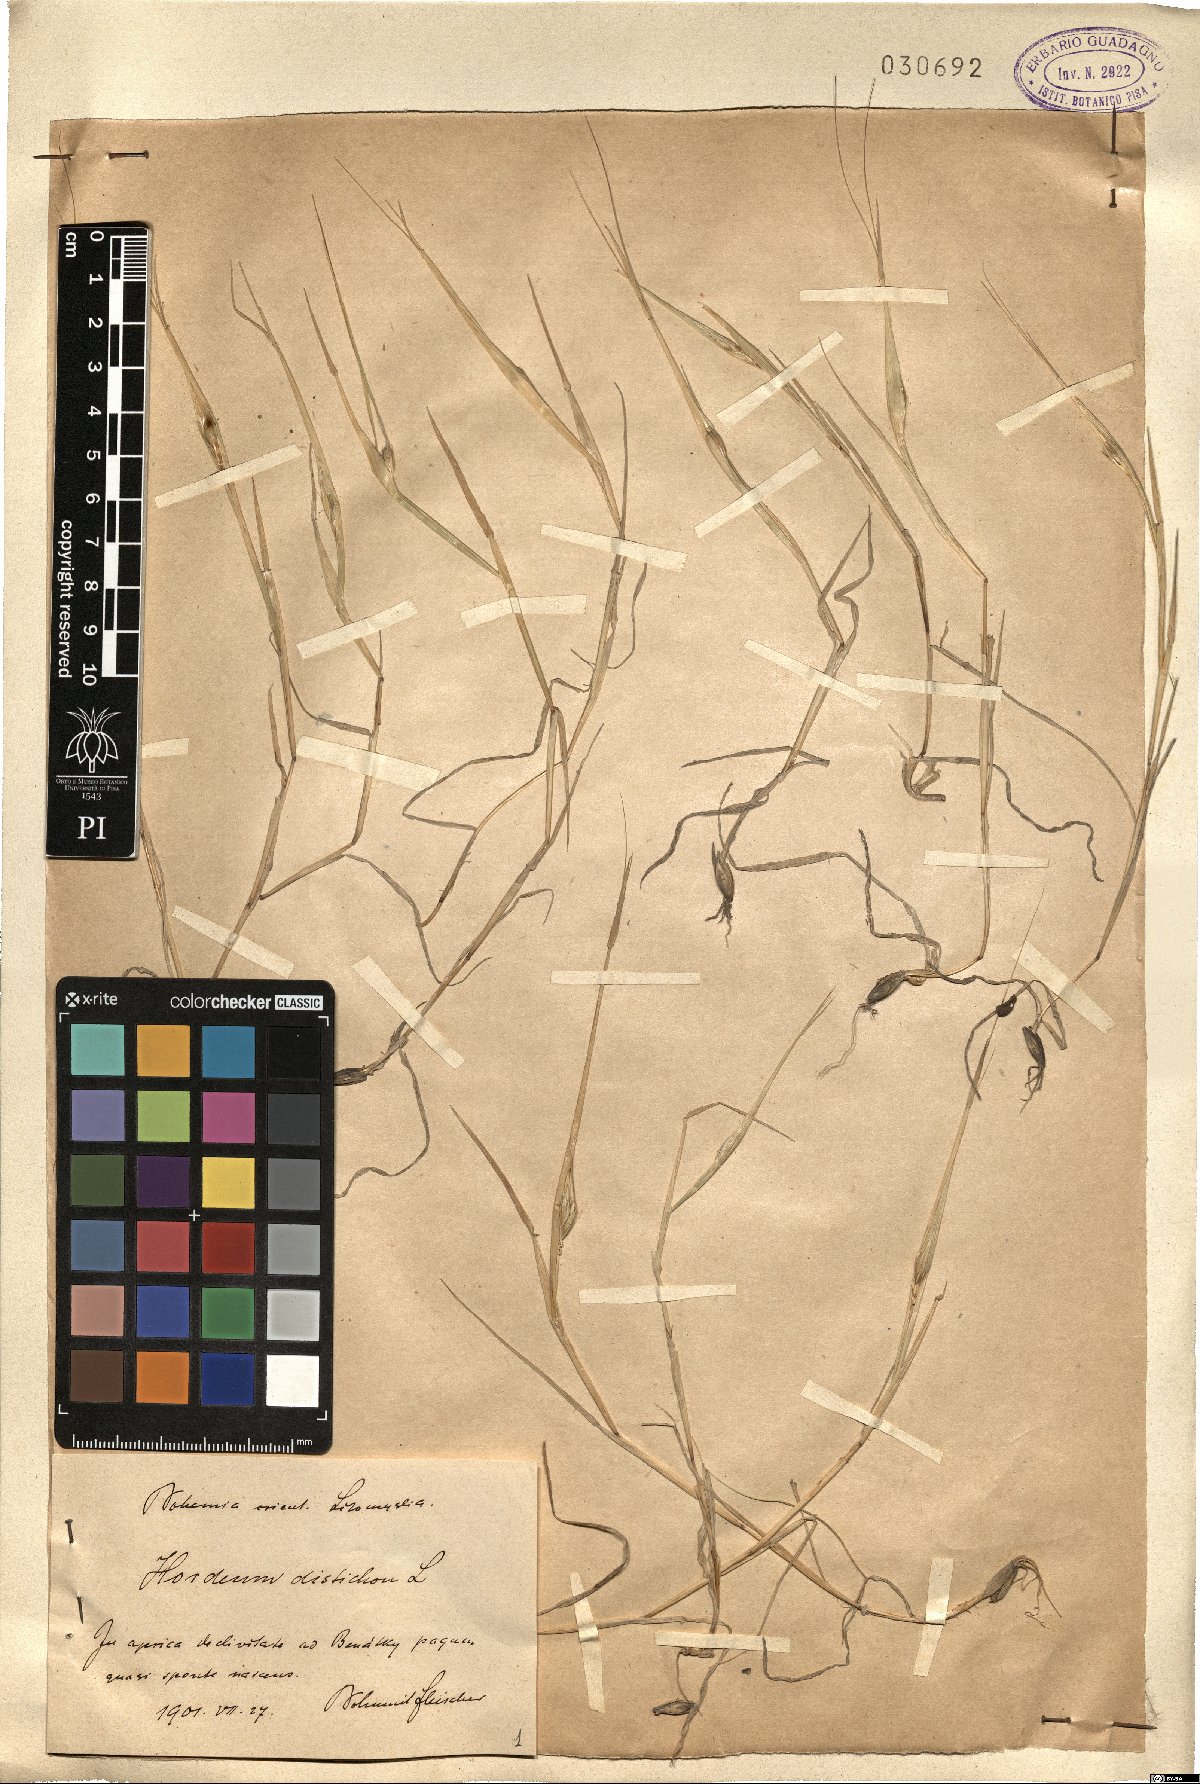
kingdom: Plantae
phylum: Tracheophyta
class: Liliopsida
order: Poales
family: Poaceae
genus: Hordeum
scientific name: Hordeum distichon
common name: Two-rowed barley
